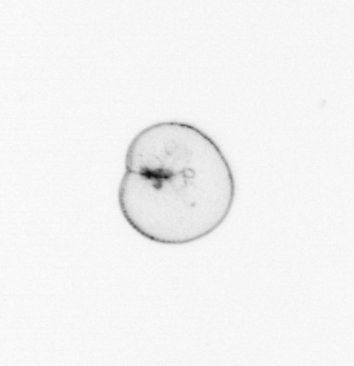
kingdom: Chromista
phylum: Myzozoa
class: Dinophyceae
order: Noctilucales
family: Noctilucaceae
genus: Noctiluca
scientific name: Noctiluca scintillans
